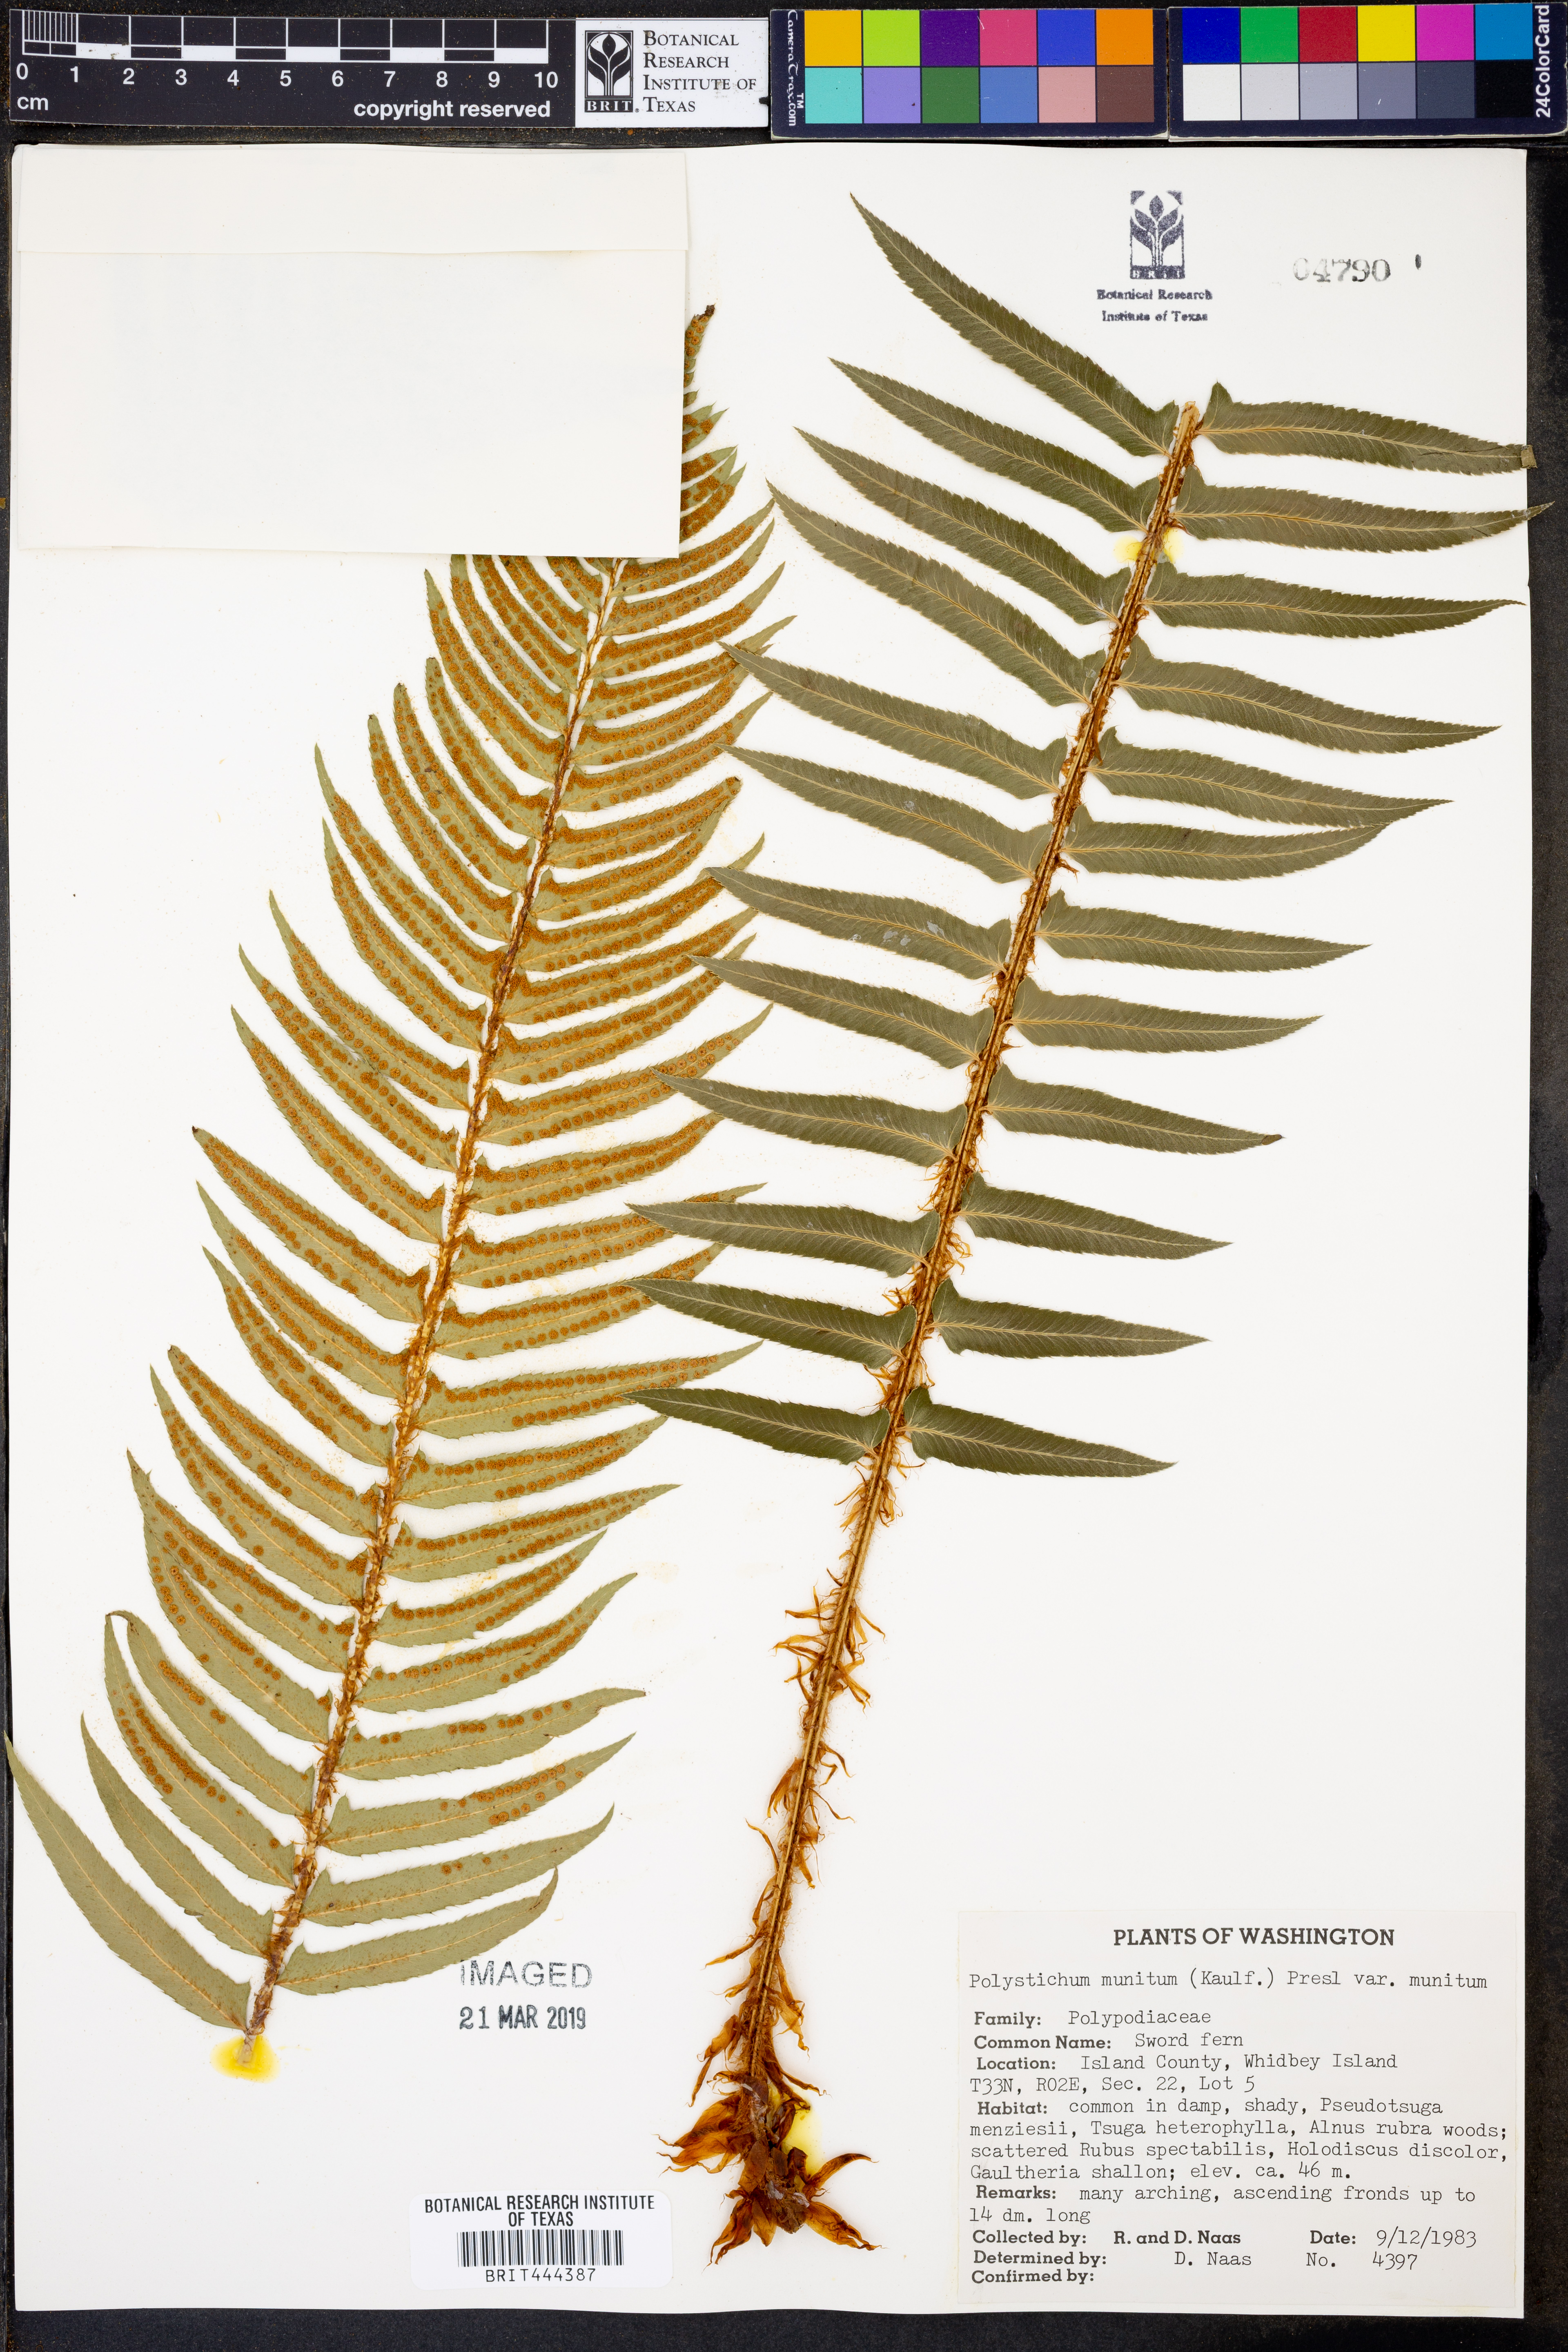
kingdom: Plantae
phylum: Tracheophyta
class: Polypodiopsida
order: Polypodiales
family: Dryopteridaceae
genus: Polystichum
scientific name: Polystichum munitum
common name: Western sword-fern
